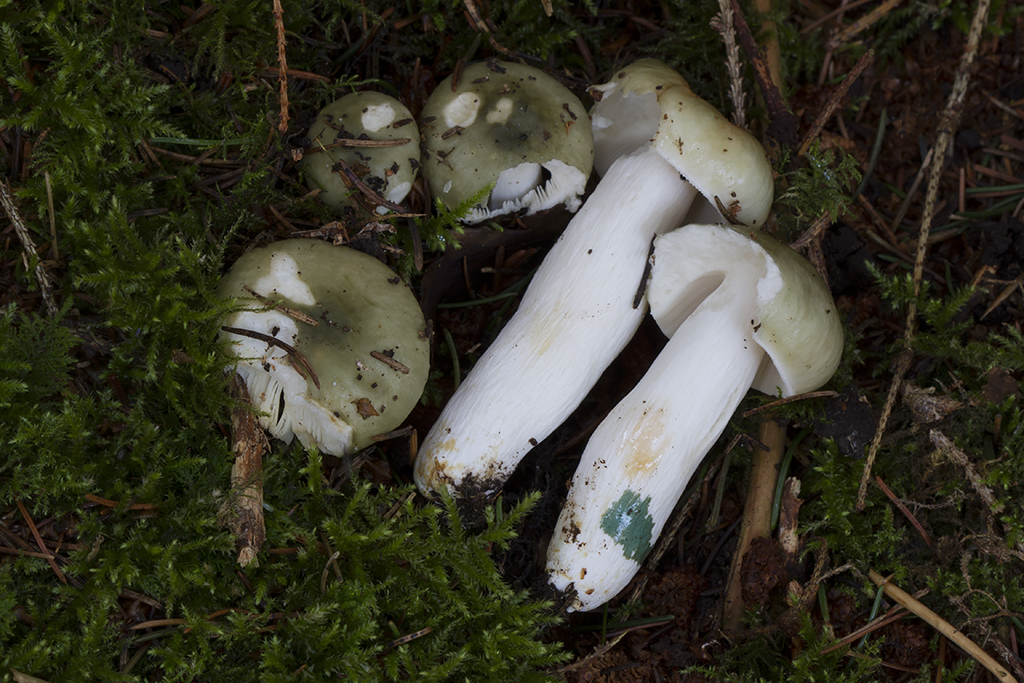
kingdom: Fungi
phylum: Basidiomycota
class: Agaricomycetes
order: Russulales
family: Russulaceae
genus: Russula
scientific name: Russula aeruginea
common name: græsgrøn skørhat
